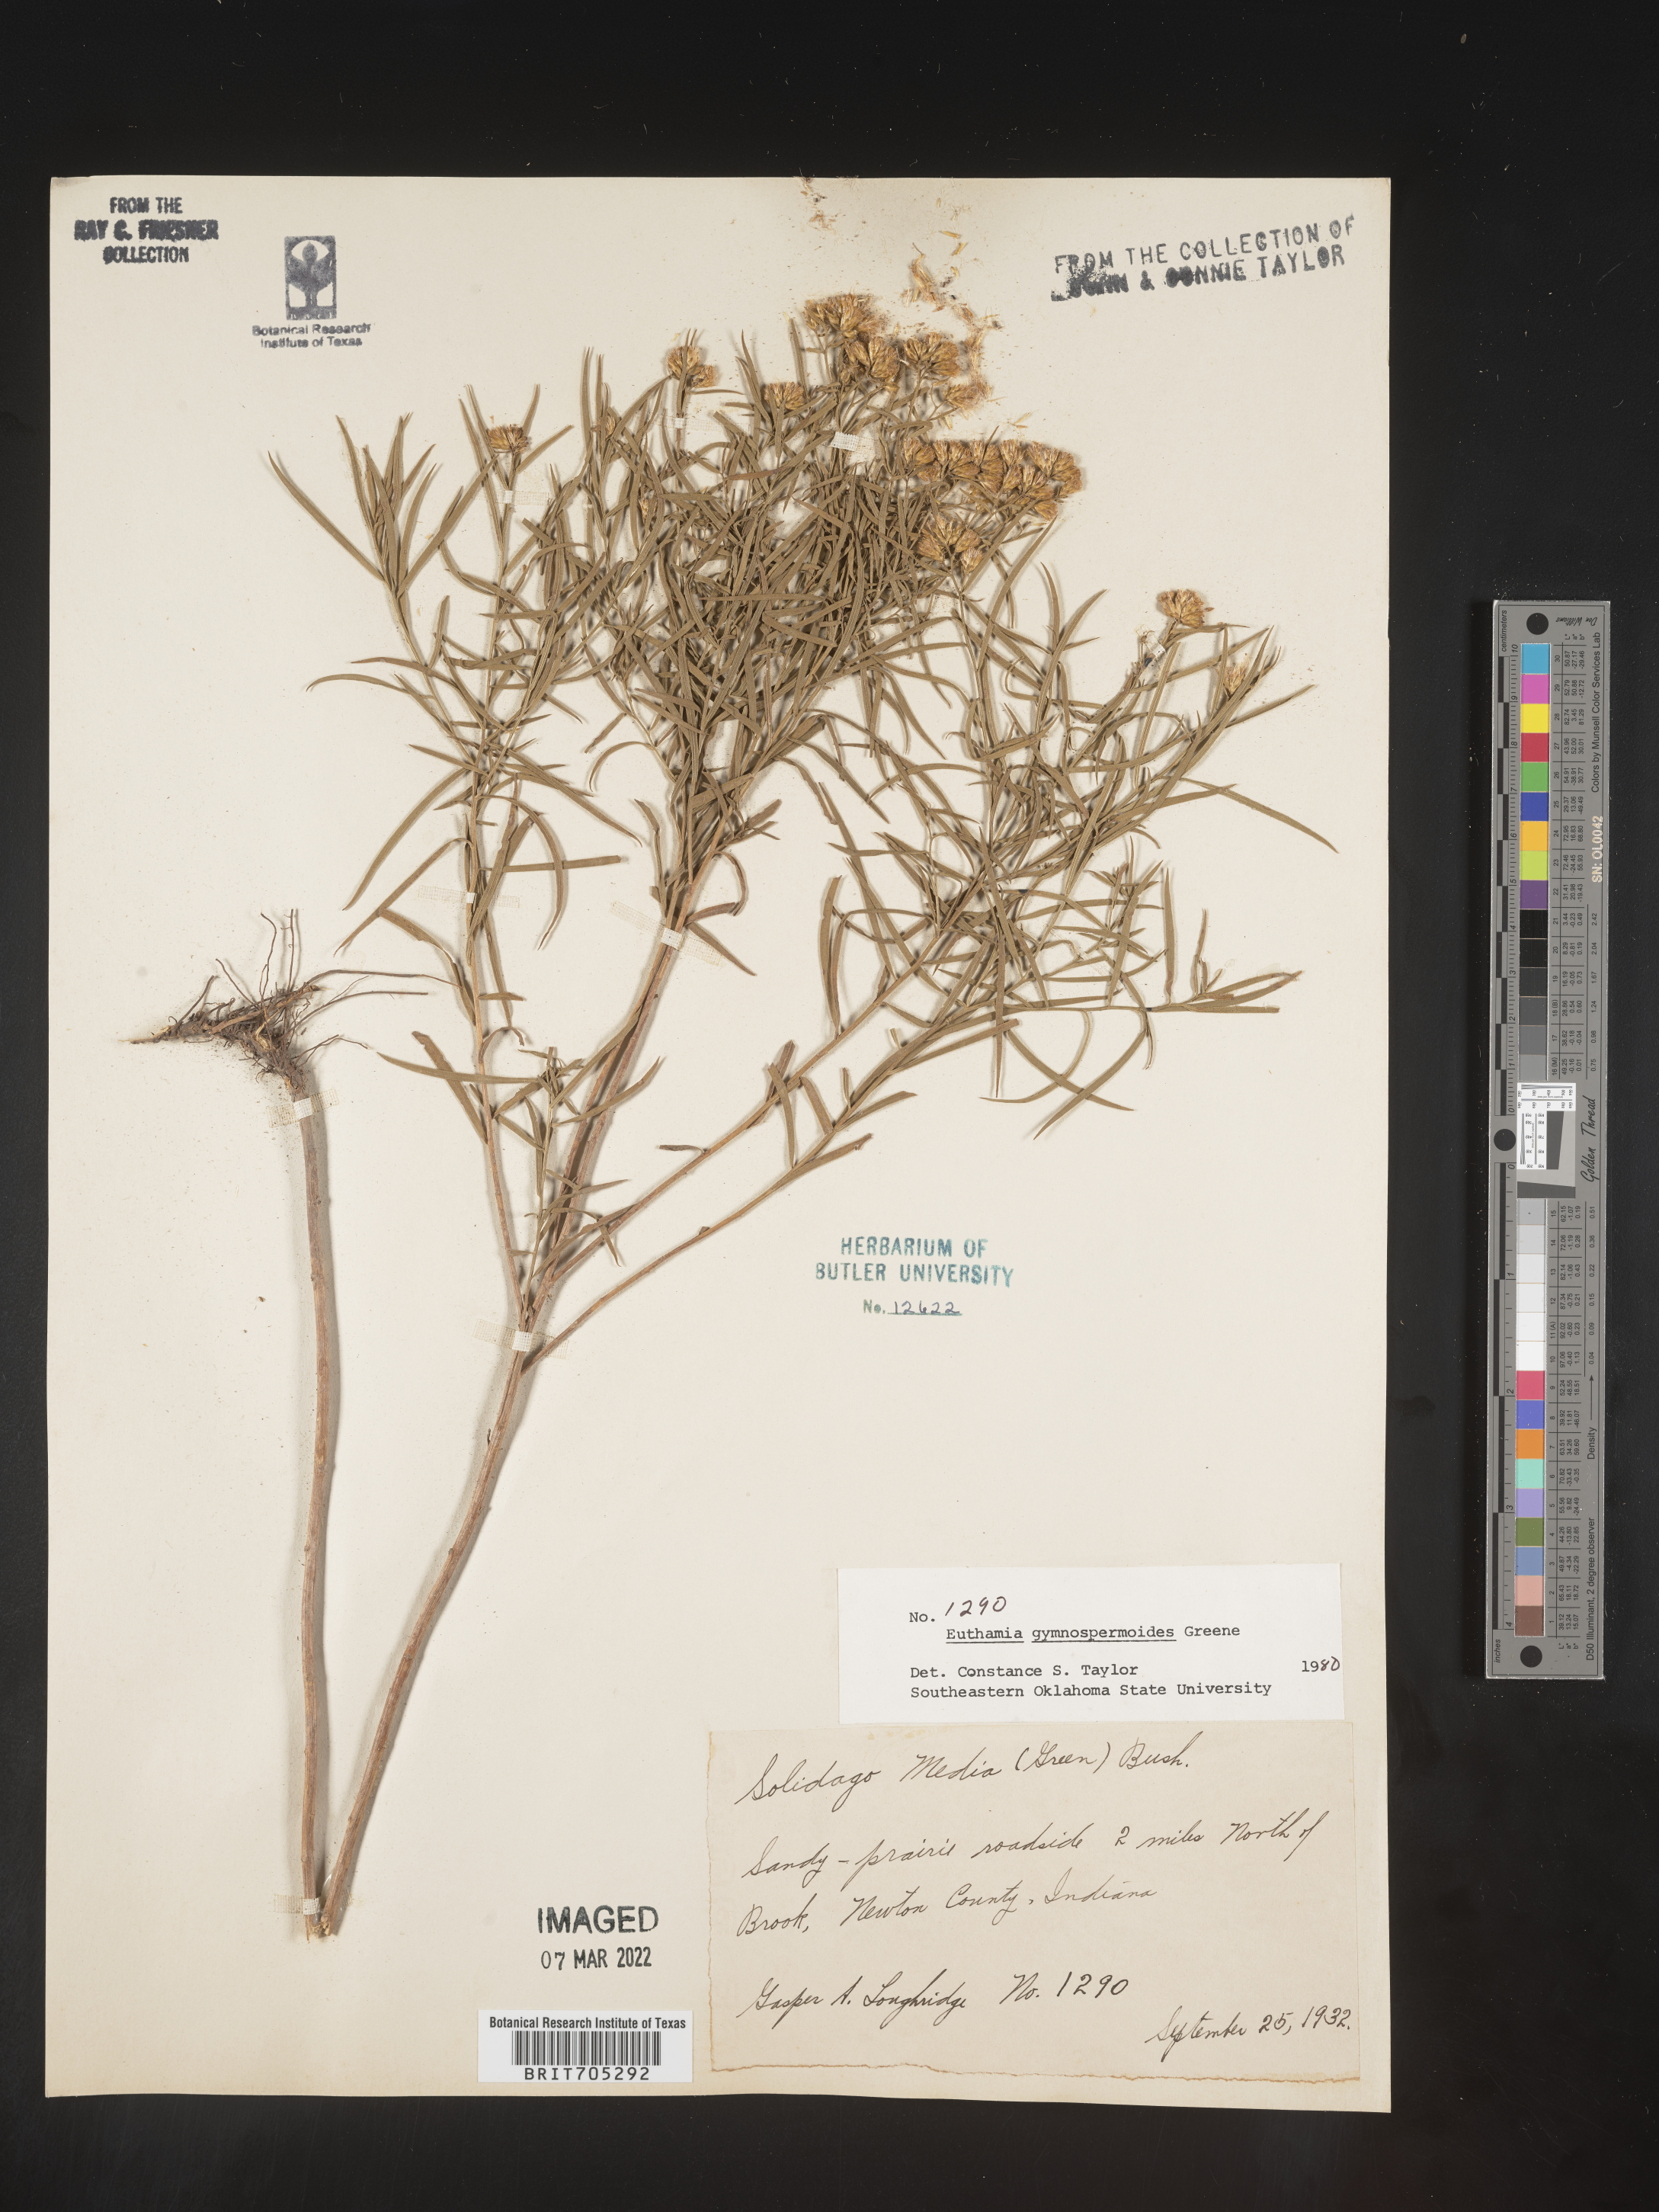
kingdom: Plantae
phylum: Tracheophyta
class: Magnoliopsida
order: Asterales
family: Asteraceae
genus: Euthamia
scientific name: Euthamia gymnospermoides
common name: Great plains goldentop
